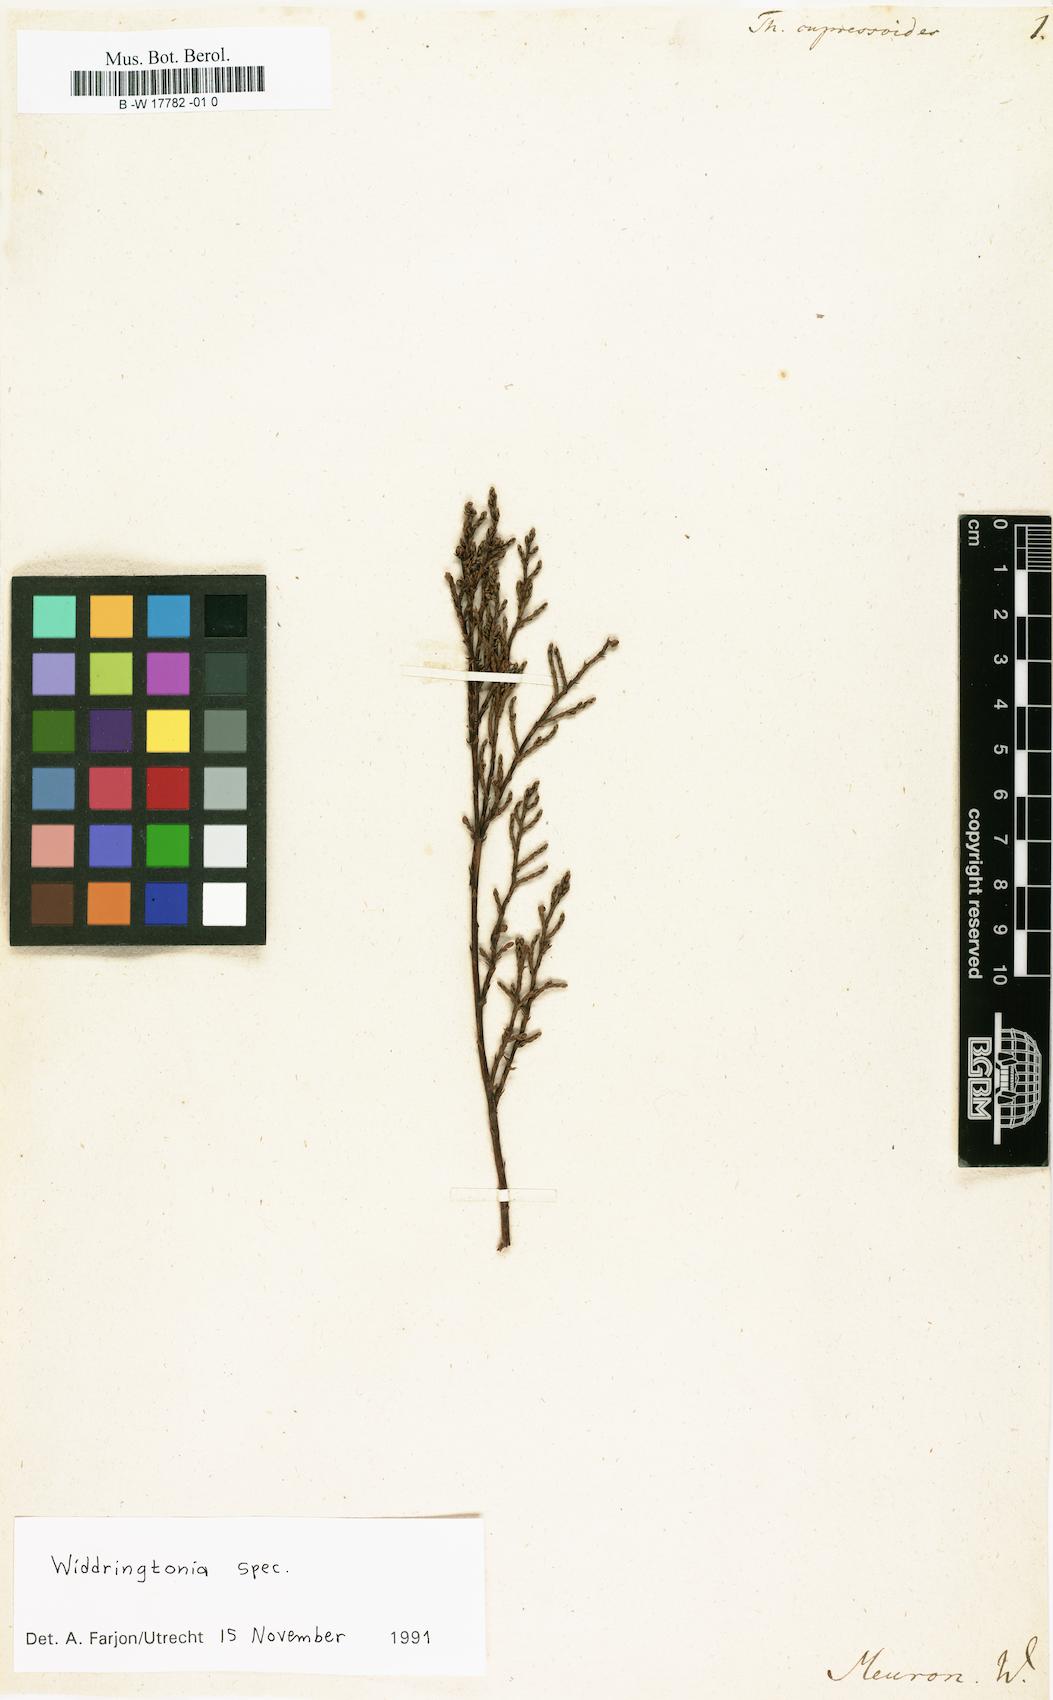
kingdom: Plantae
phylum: Tracheophyta
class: Pinopsida
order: Pinales
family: Cupressaceae
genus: Widdringtonia
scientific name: Widdringtonia nodiflora
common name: Cape cypress
